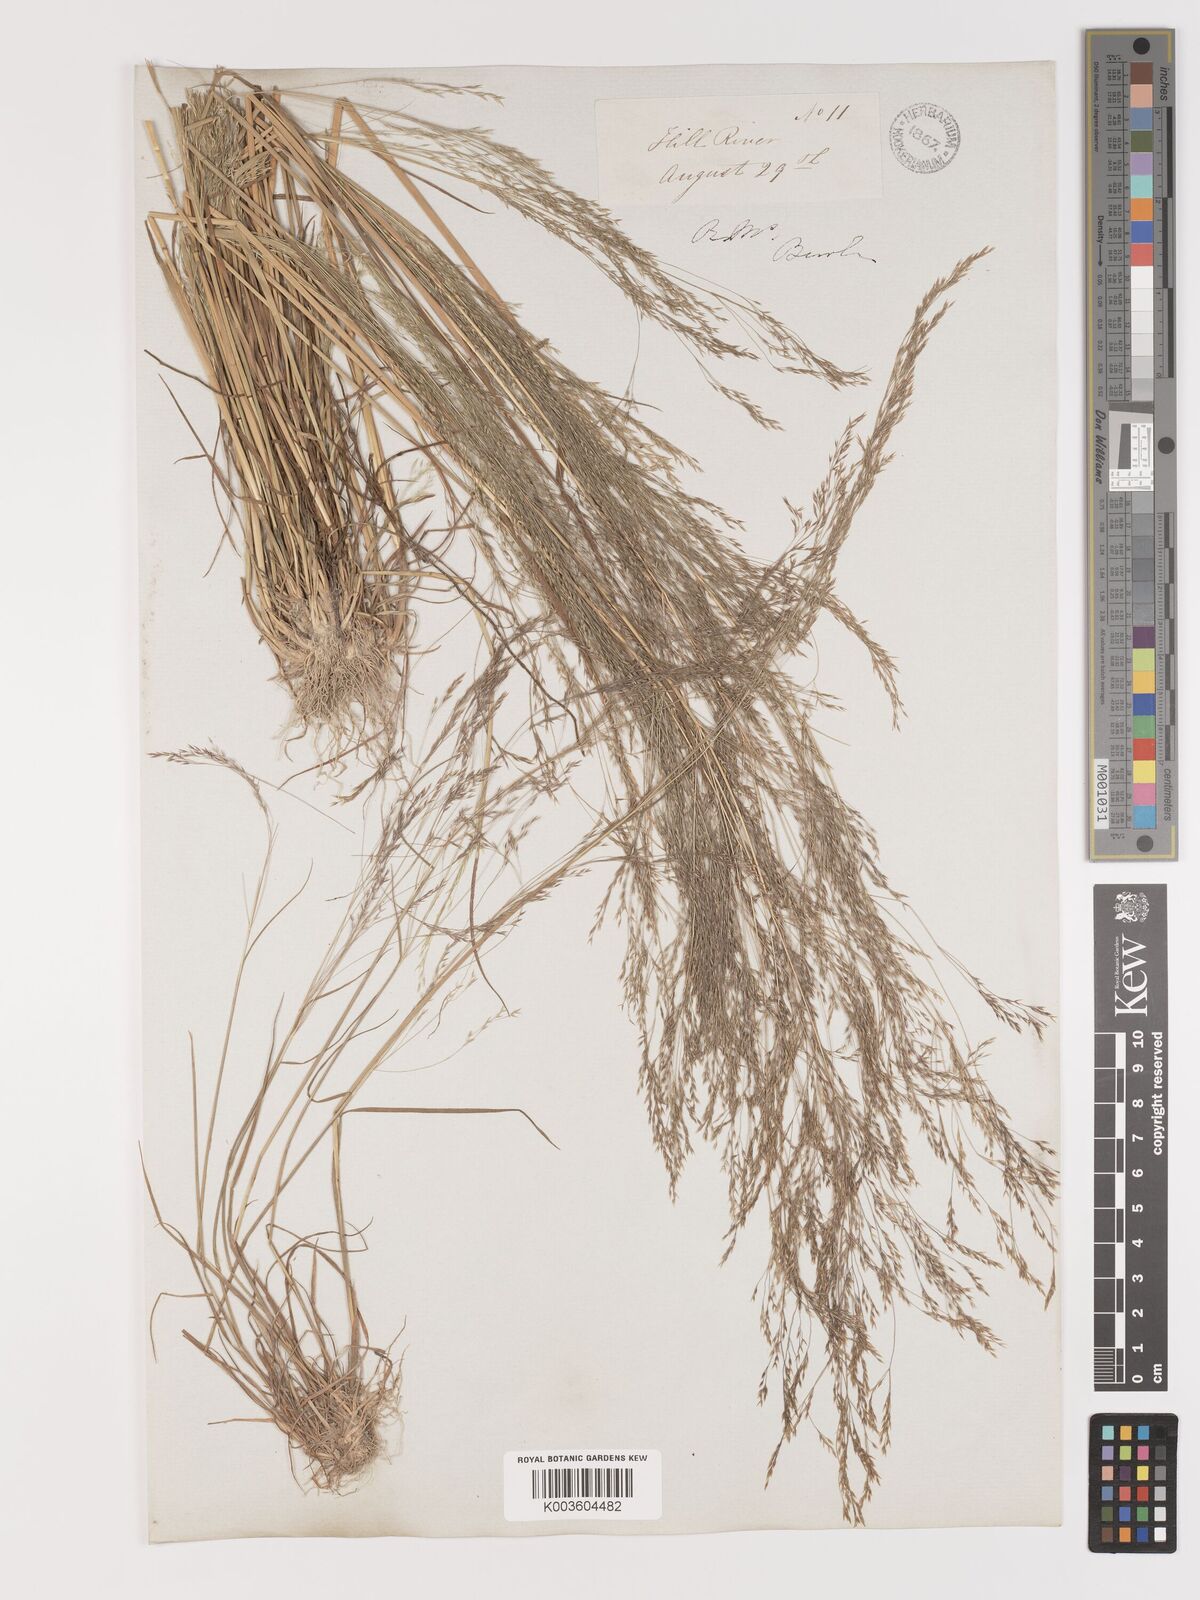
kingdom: Plantae
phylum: Tracheophyta
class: Liliopsida
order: Poales
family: Poaceae
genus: Agrostis
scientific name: Agrostis hyemalis
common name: Small bent
